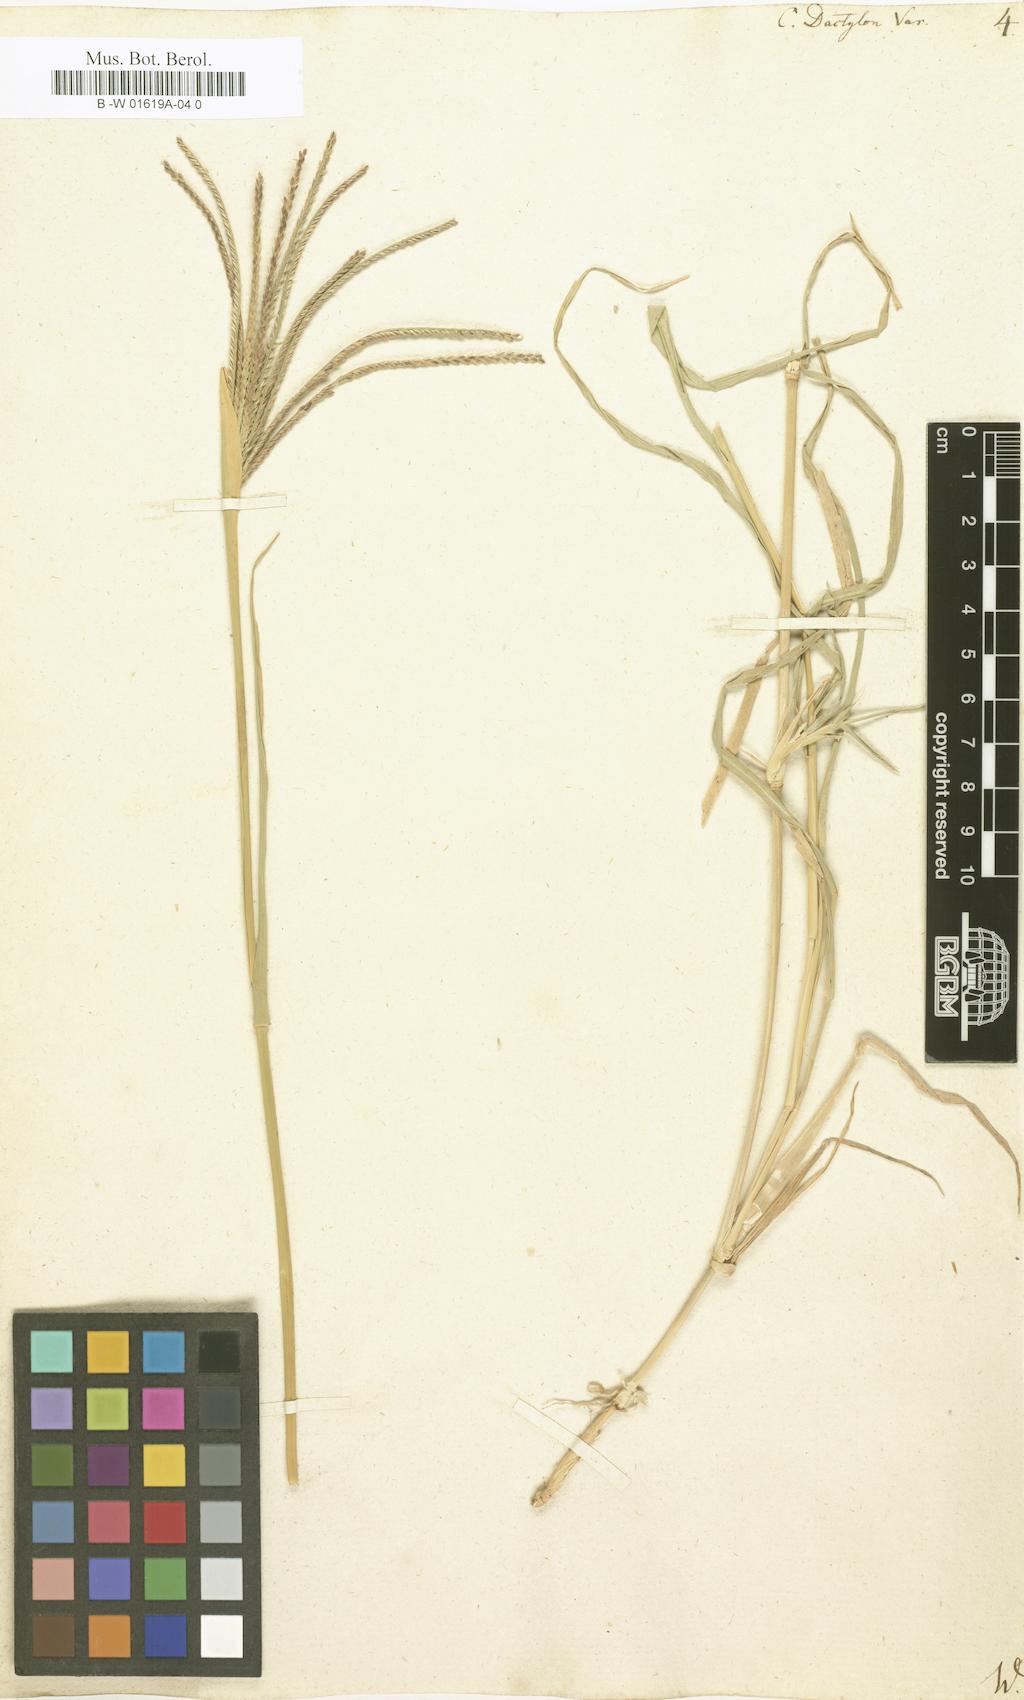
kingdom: Plantae
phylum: Tracheophyta
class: Liliopsida
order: Poales
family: Poaceae
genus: Cynodon
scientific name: Cynodon dactylon
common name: Bermuda grass
